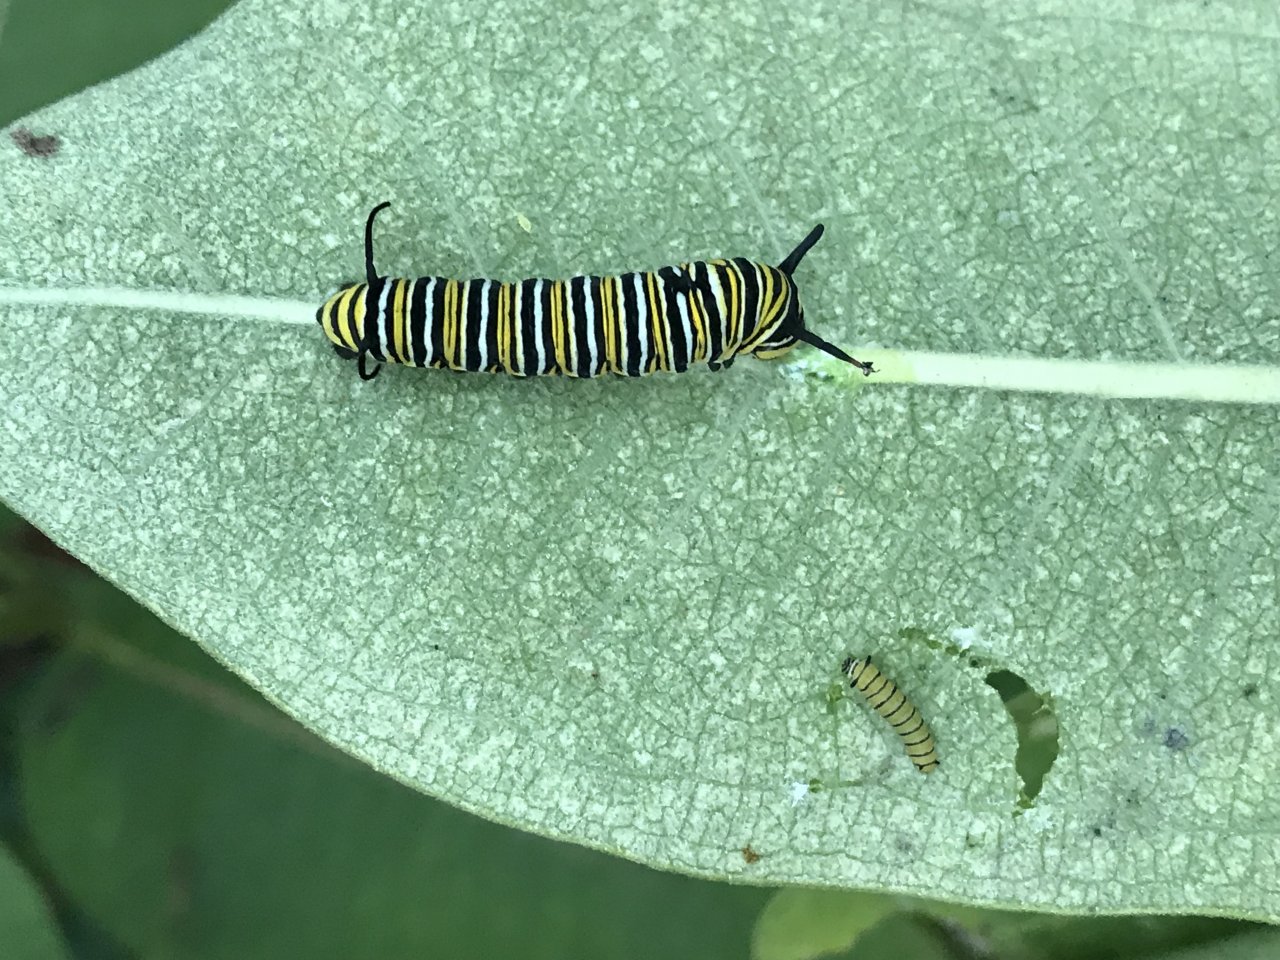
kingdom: Animalia
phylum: Arthropoda
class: Insecta
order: Lepidoptera
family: Nymphalidae
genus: Danaus
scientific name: Danaus plexippus
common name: Monarch
